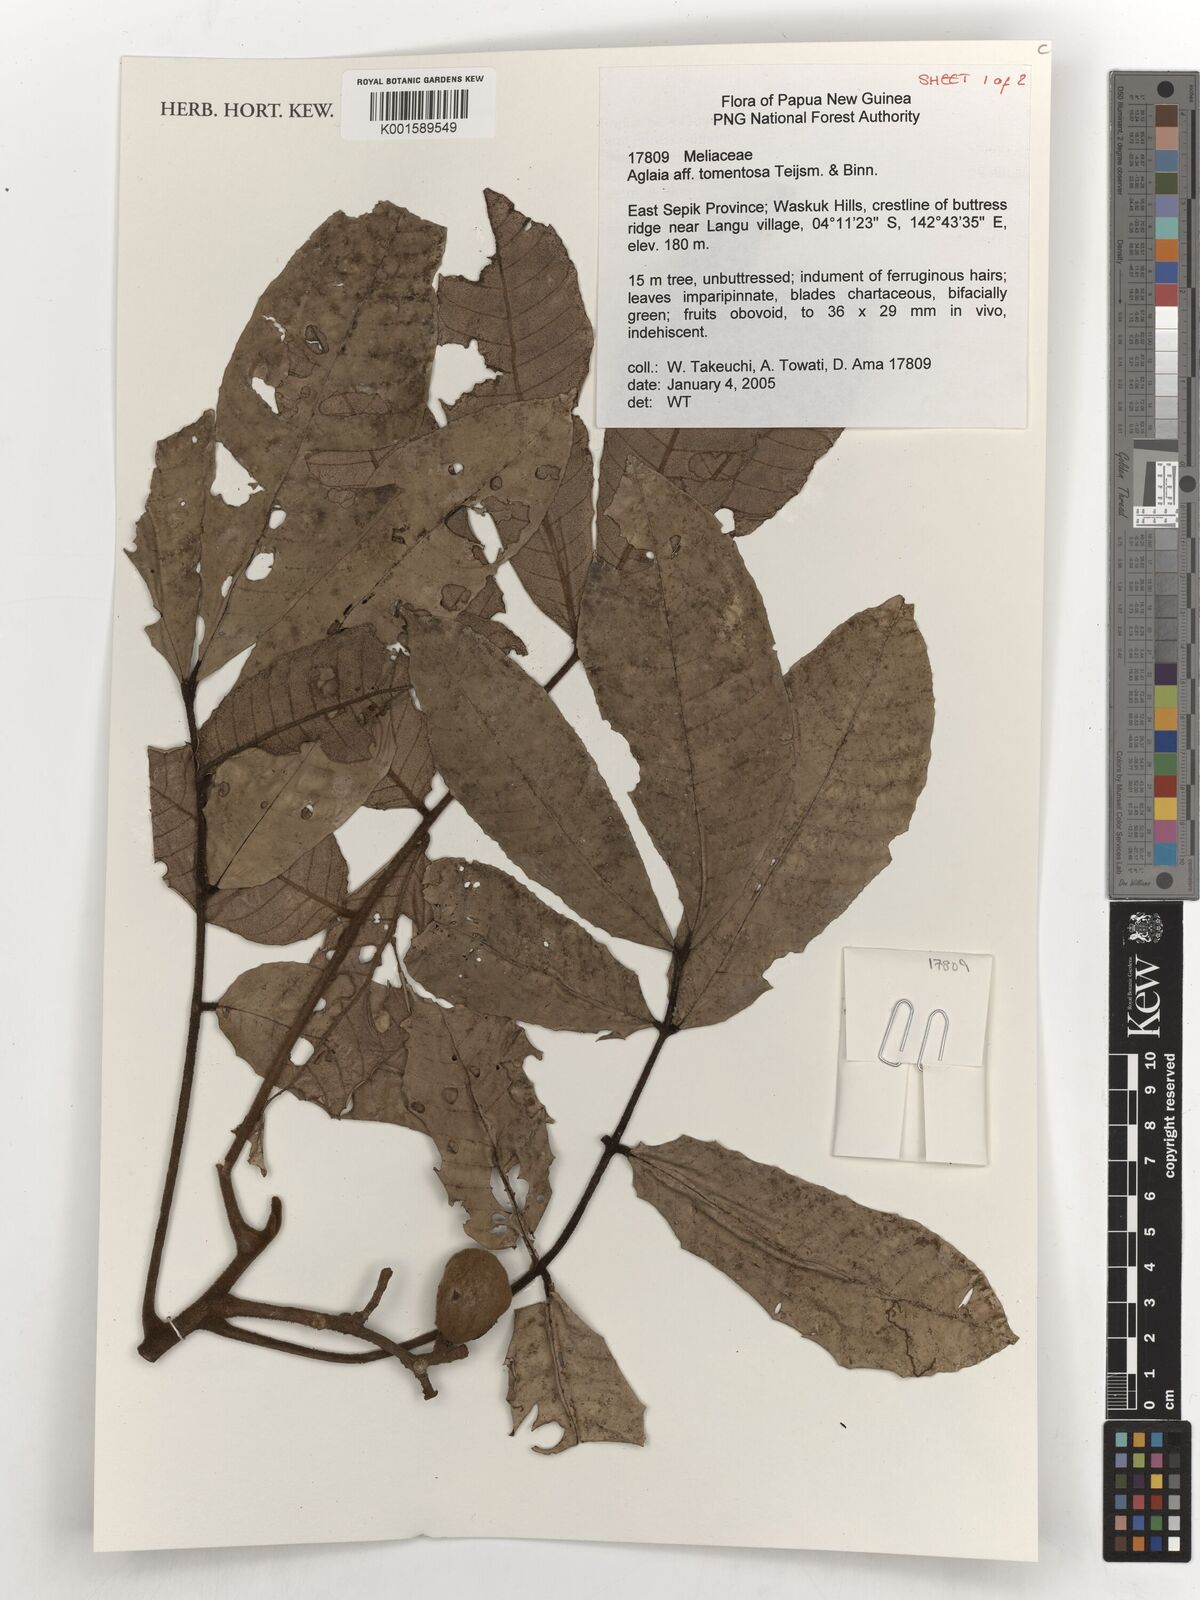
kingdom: Plantae
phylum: Tracheophyta
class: Magnoliopsida
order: Sapindales
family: Meliaceae
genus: Aglaia
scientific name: Aglaia tomentosa
